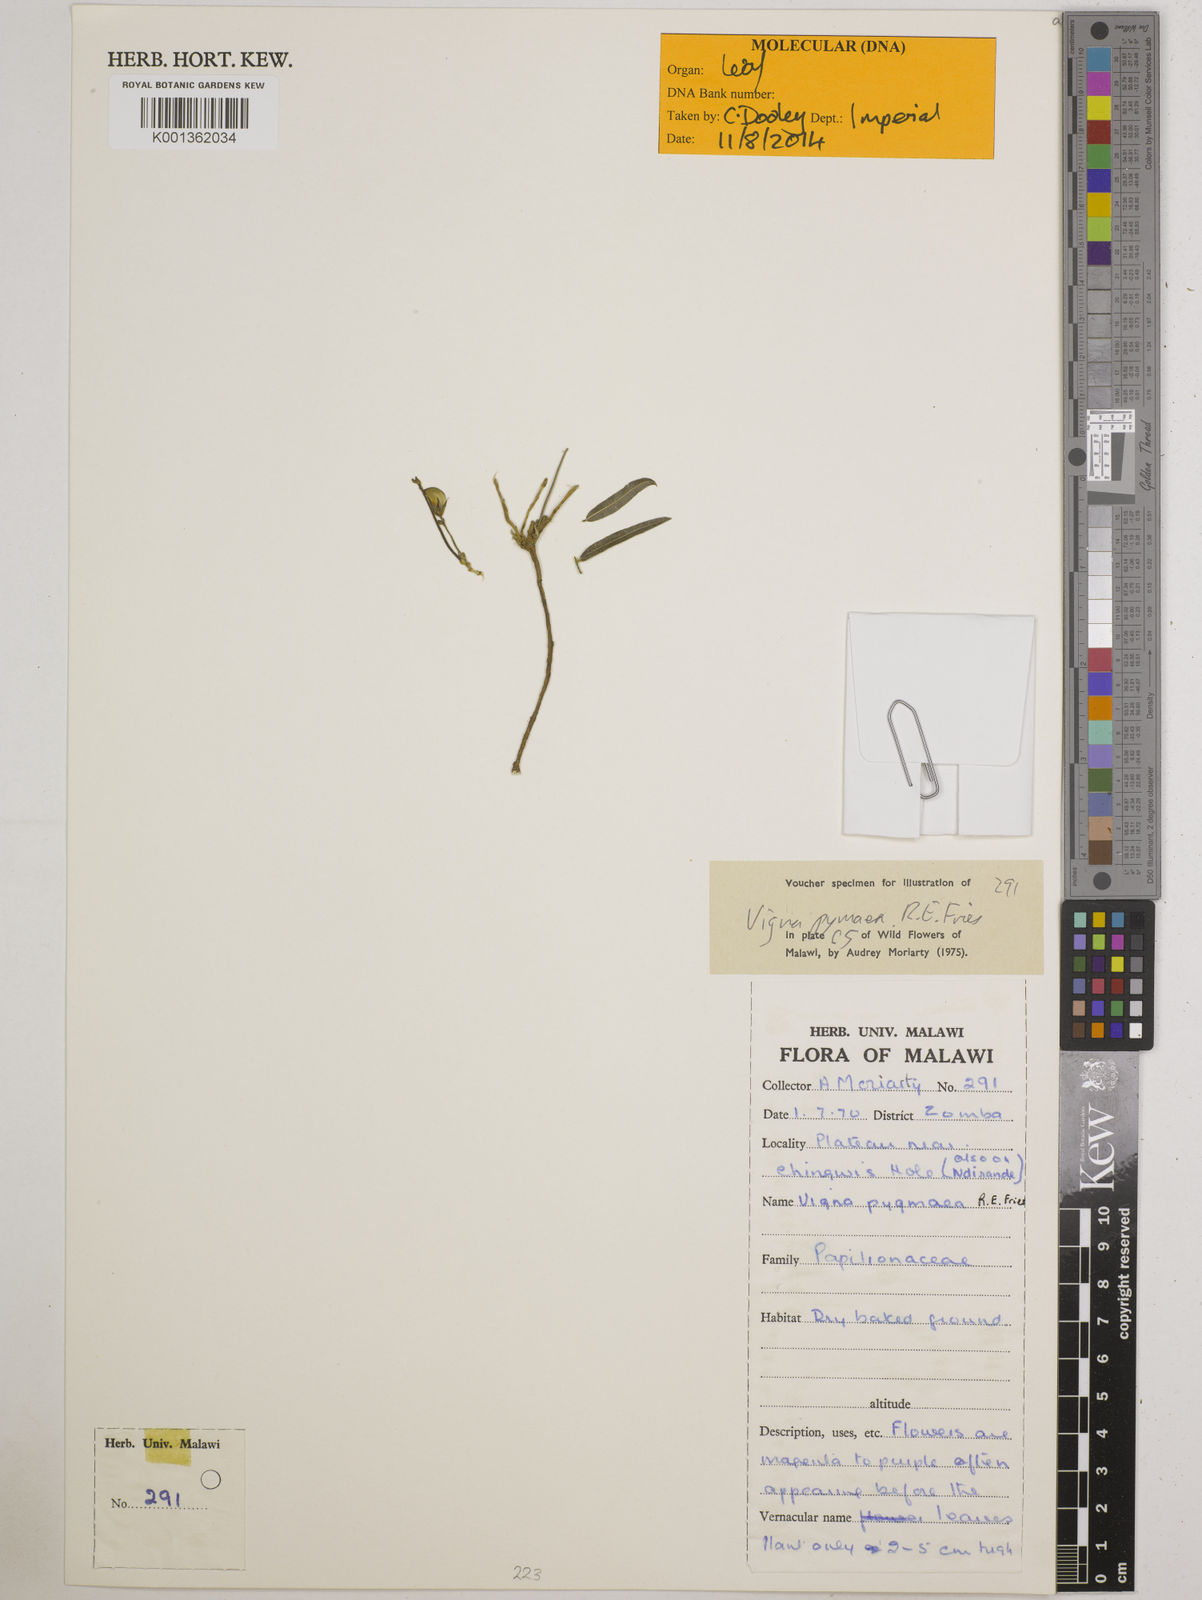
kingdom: Plantae
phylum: Tracheophyta
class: Magnoliopsida
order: Fabales
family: Fabaceae
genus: Vigna
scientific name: Vigna pygmaea
